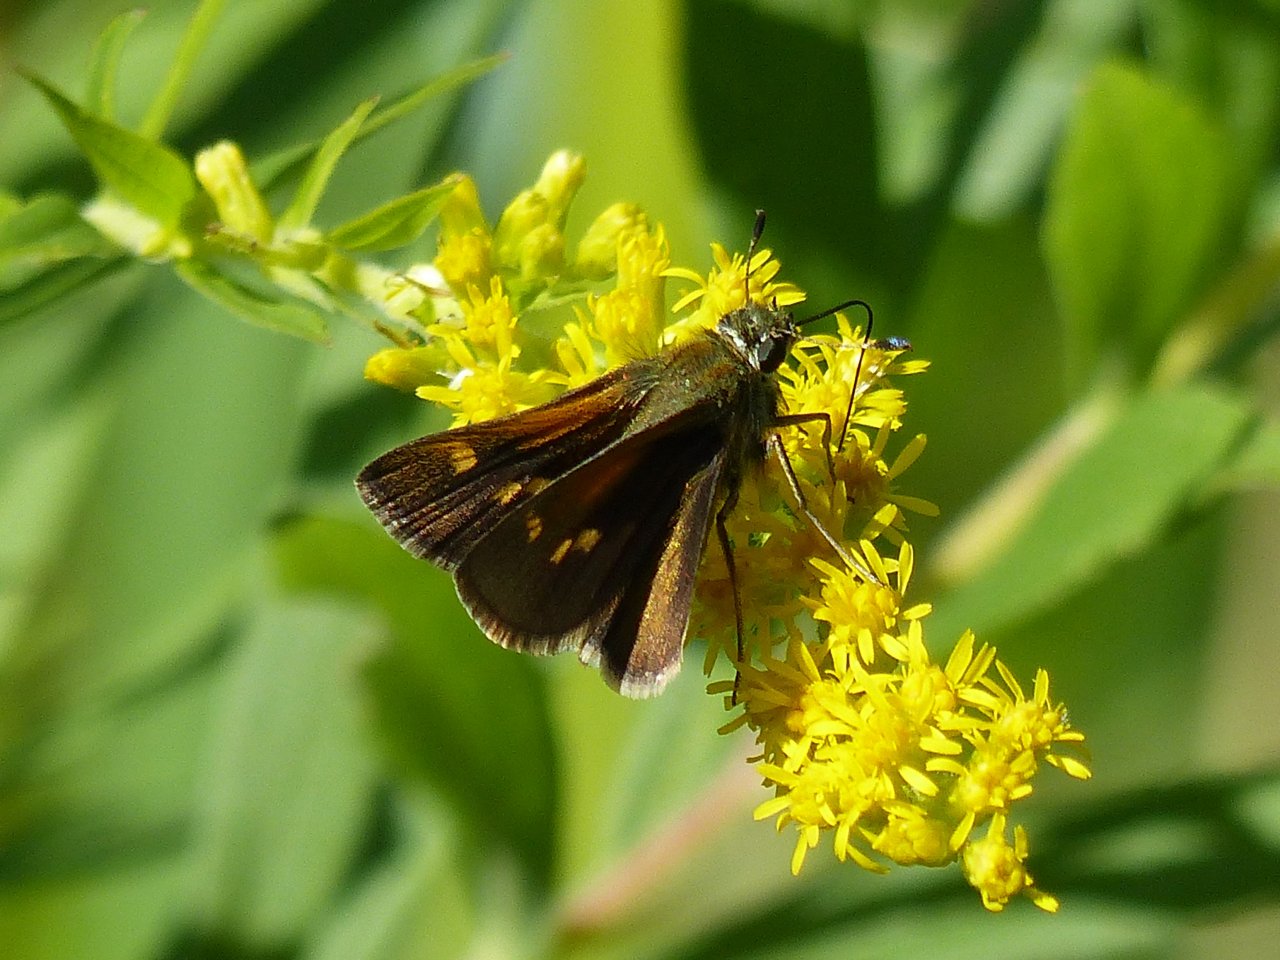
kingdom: Animalia
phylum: Arthropoda
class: Insecta
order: Lepidoptera
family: Hesperiidae
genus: Polites
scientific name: Polites themistocles
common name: Tawny-edged Skipper
